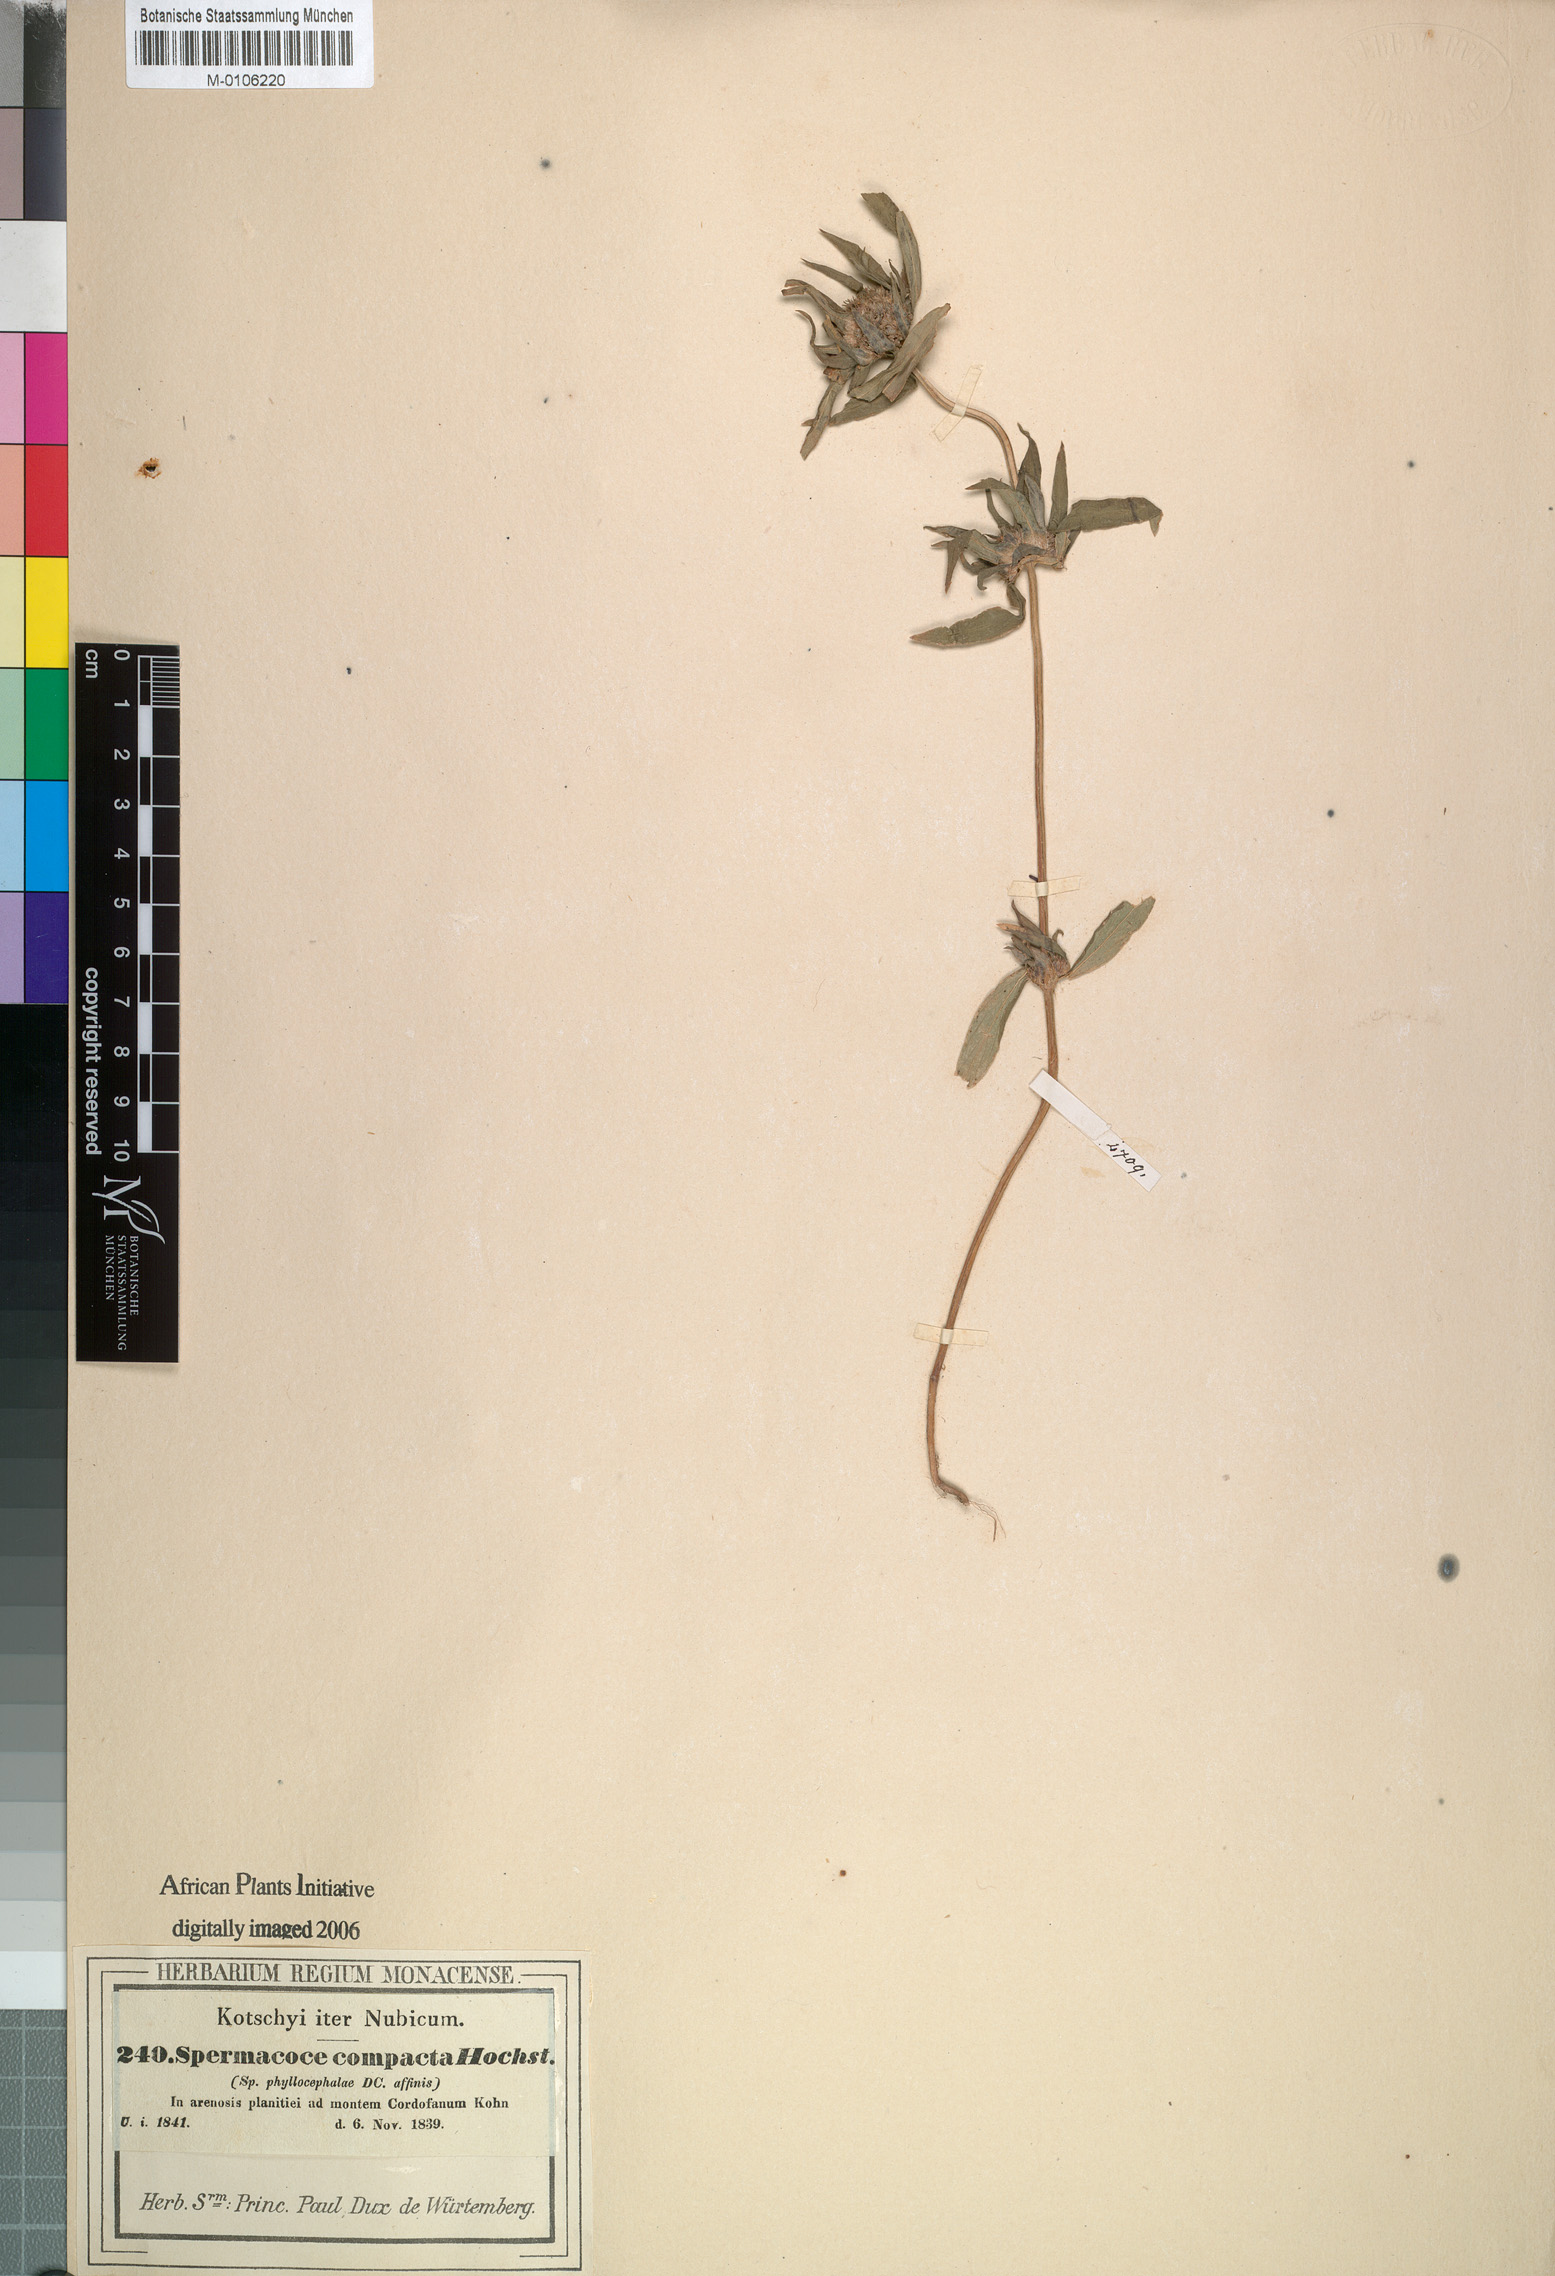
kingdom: Plantae
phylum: Tracheophyta
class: Magnoliopsida
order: Gentianales
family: Rubiaceae
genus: Spermacoce
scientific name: Spermacoce chaetocephala
